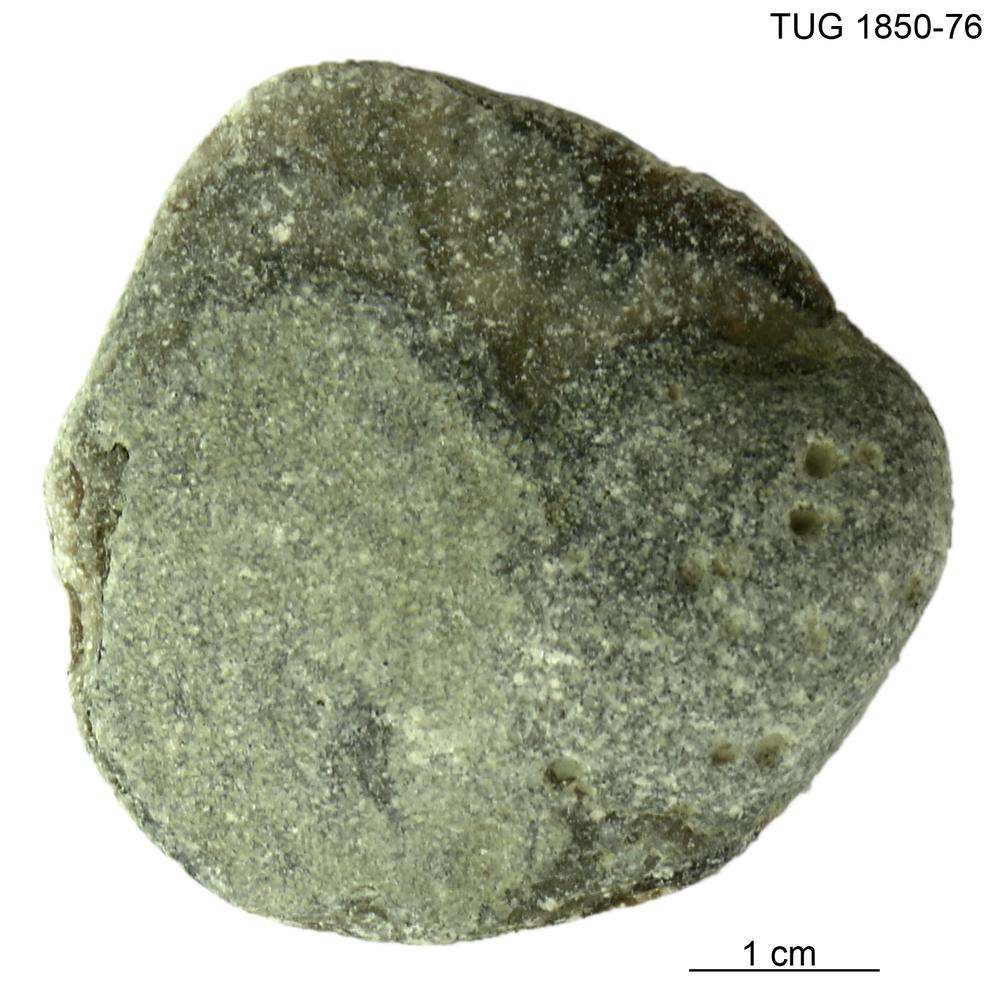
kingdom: Animalia
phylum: Porifera
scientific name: Porifera
